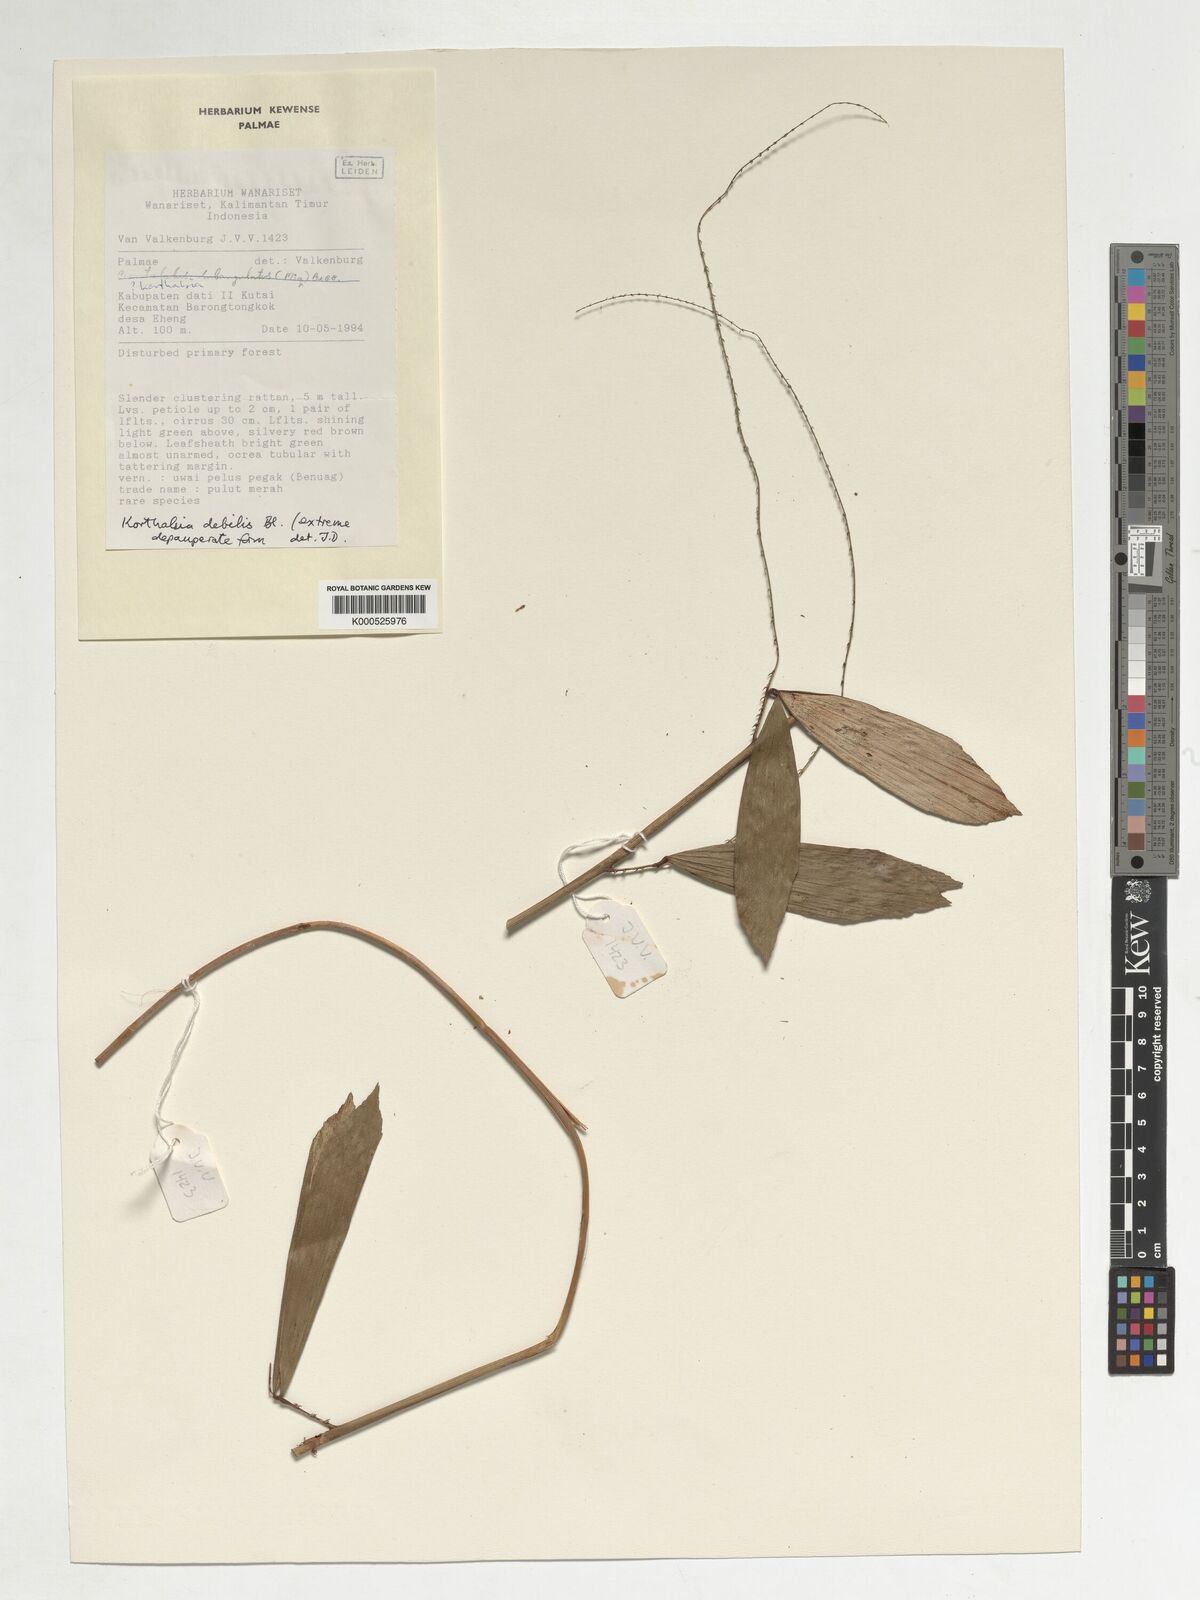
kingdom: Plantae
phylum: Tracheophyta
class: Liliopsida
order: Arecales
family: Arecaceae
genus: Korthalsia
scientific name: Korthalsia debilis
